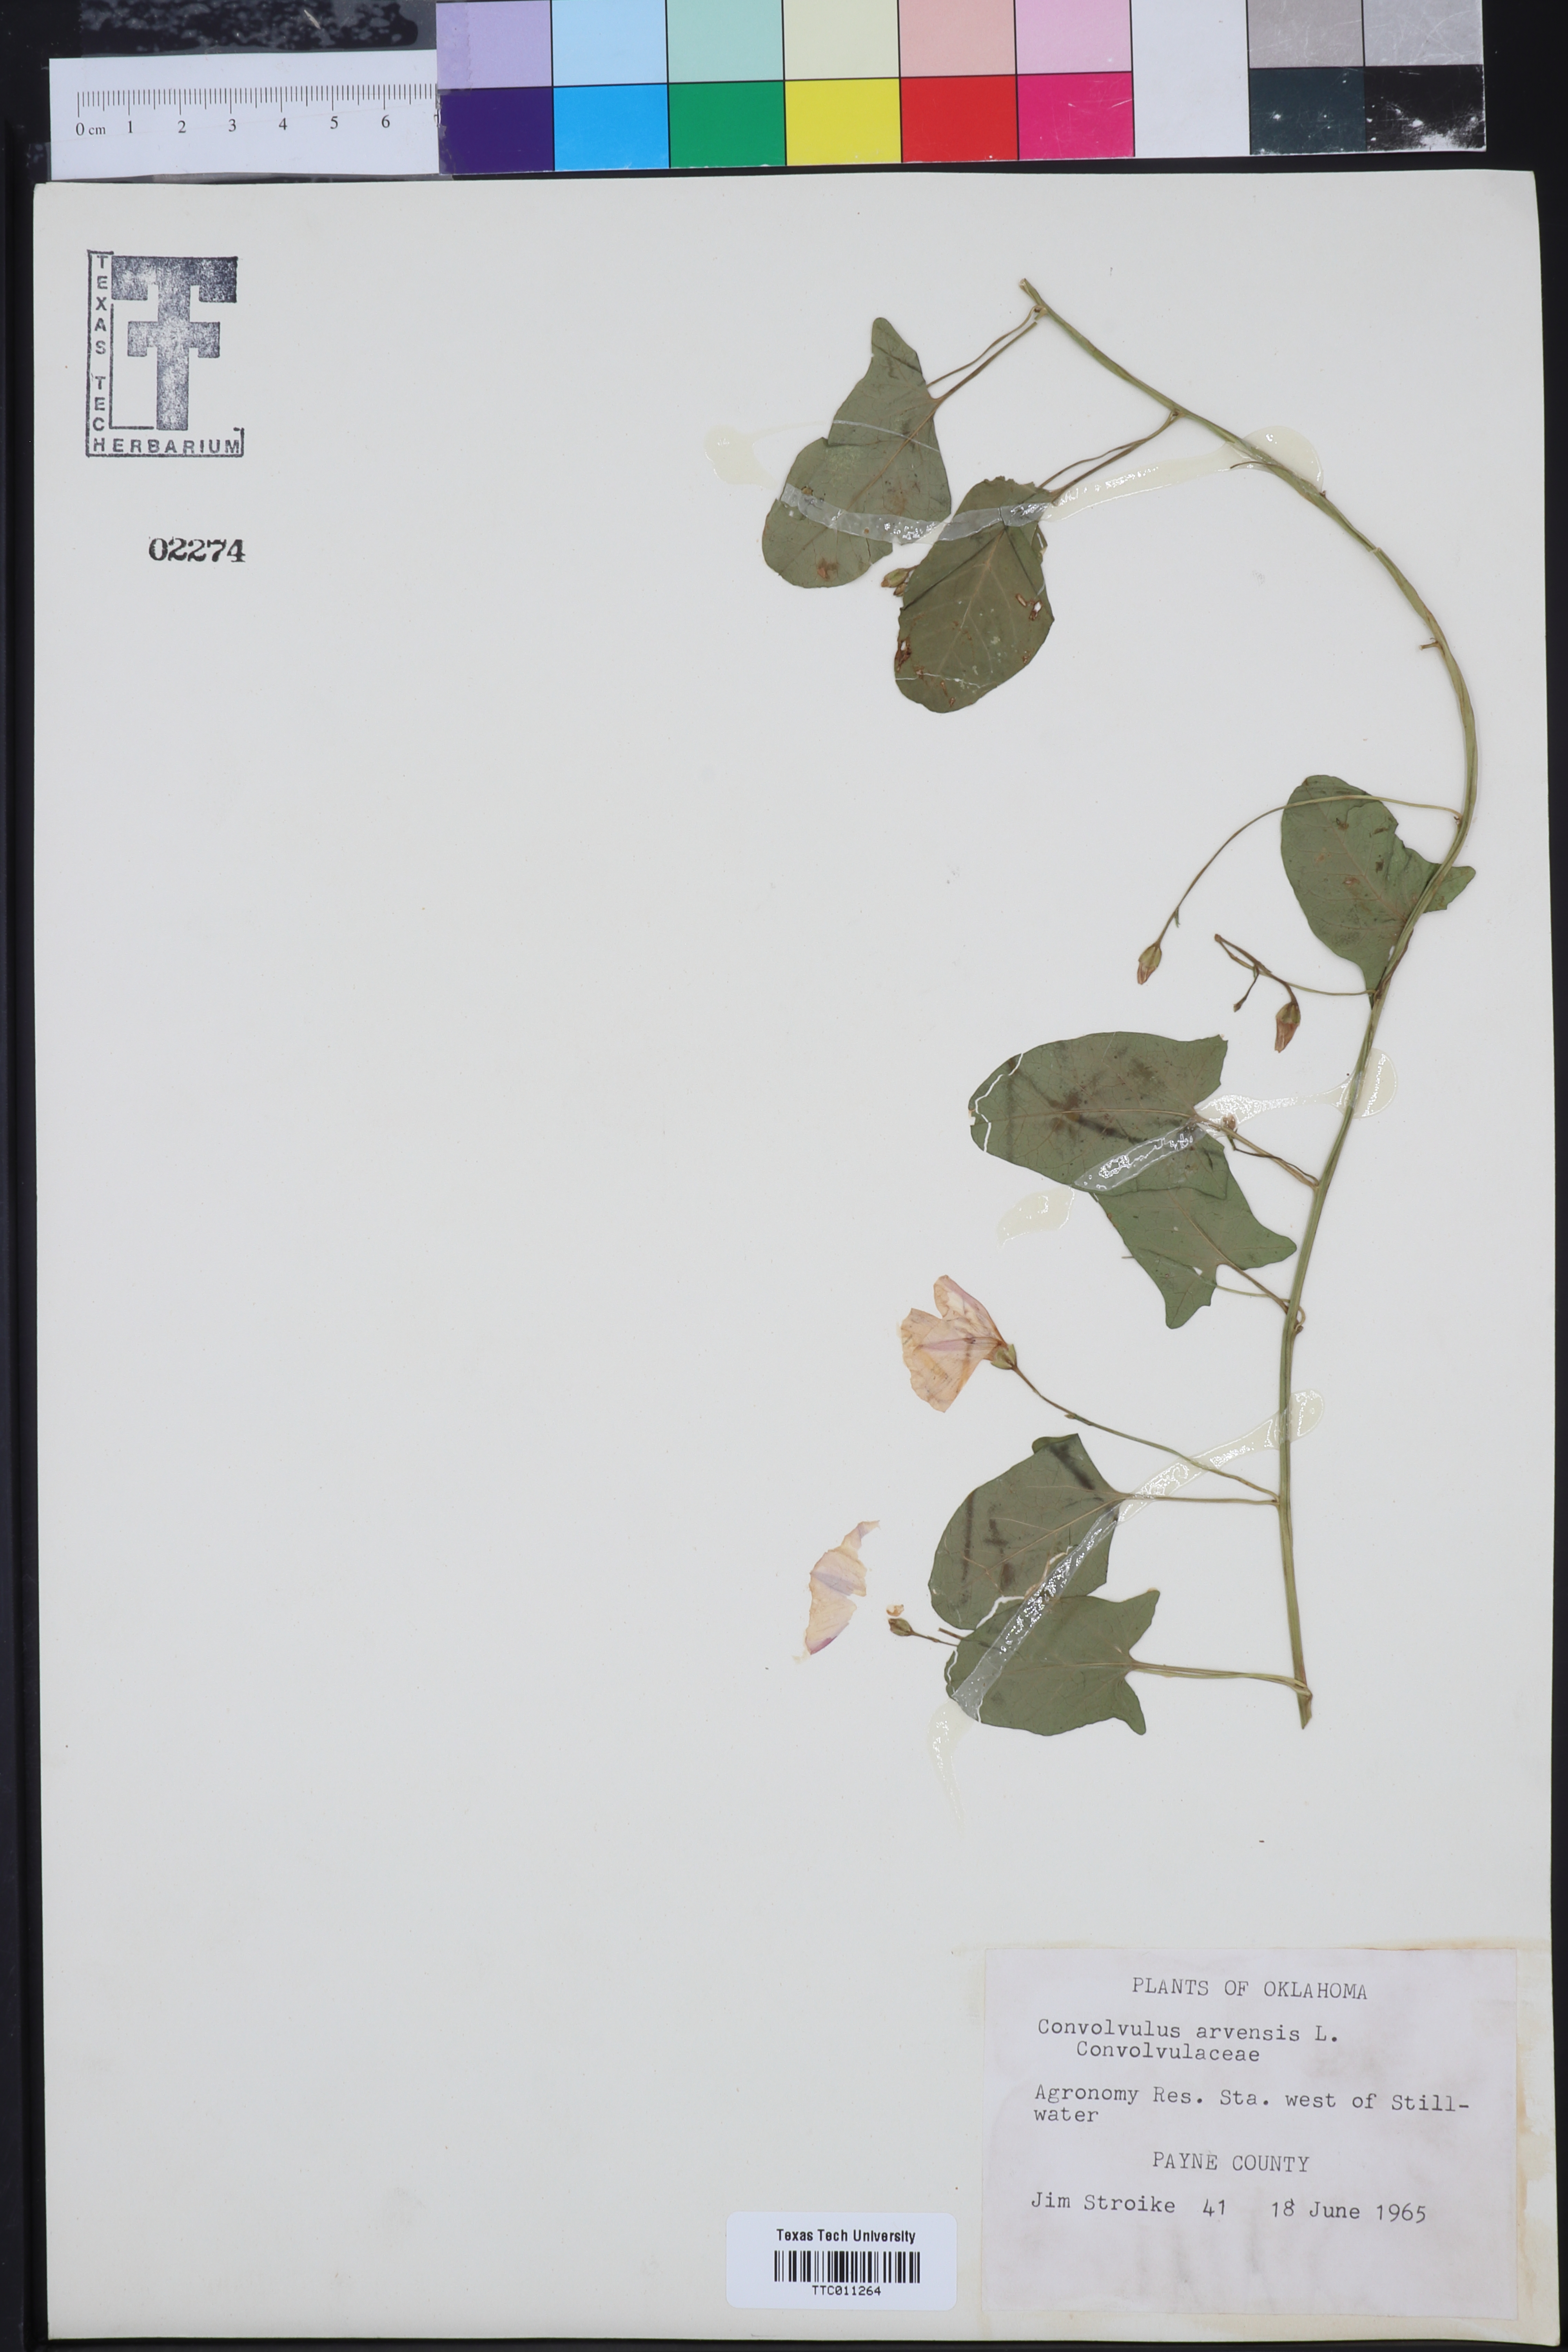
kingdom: Plantae
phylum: Tracheophyta
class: Magnoliopsida
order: Solanales
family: Convolvulaceae
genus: Convolvulus
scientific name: Convolvulus arvensis
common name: Field bindweed
